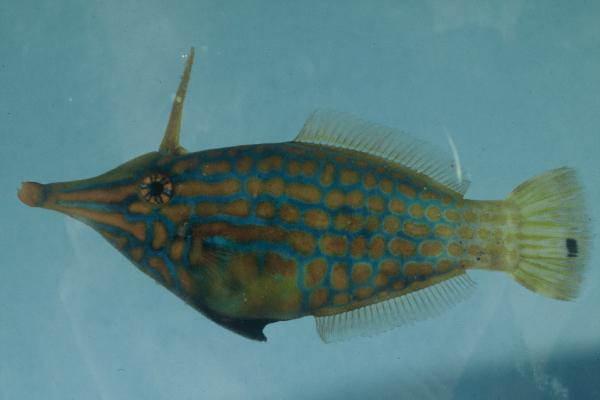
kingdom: Animalia
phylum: Chordata
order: Tetraodontiformes
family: Monacanthidae
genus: Oxymonacanthus
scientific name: Oxymonacanthus longirostris
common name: Beaked leatherjacket
